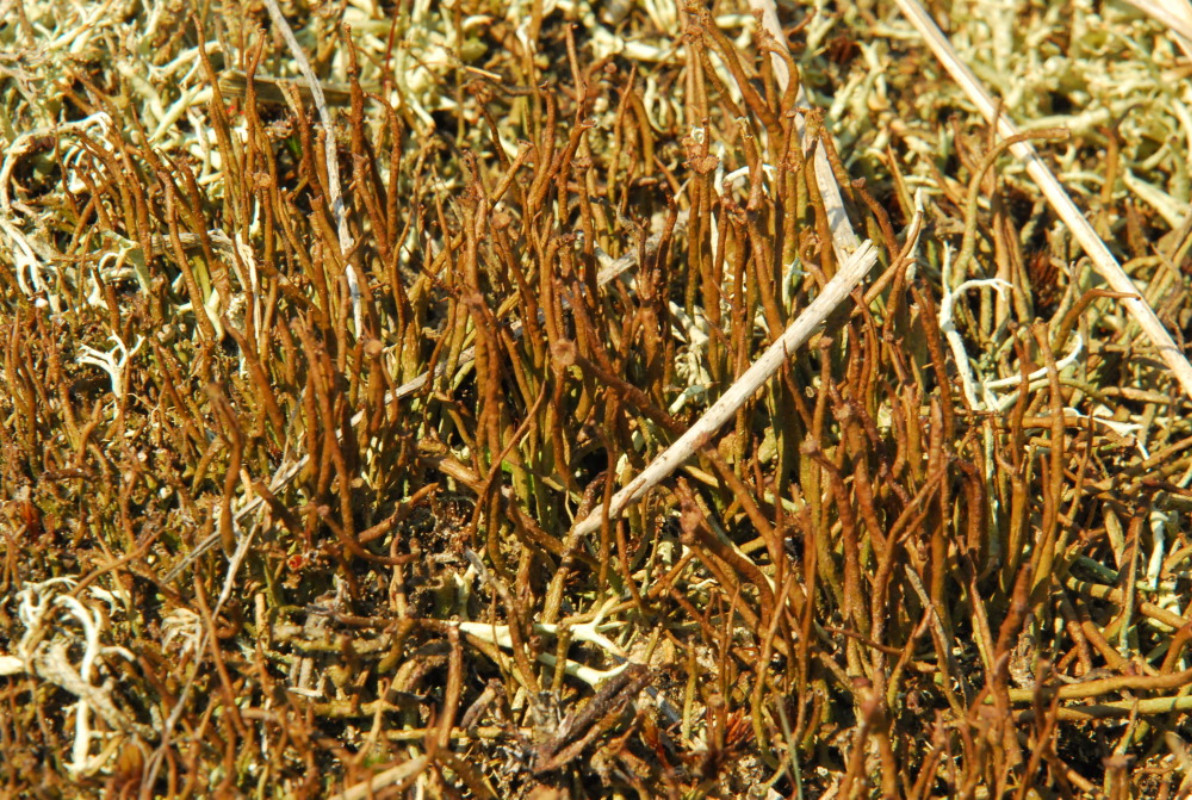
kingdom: Fungi
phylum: Ascomycota
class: Lecanoromycetes
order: Lecanorales
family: Cladoniaceae
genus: Cladonia
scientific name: Cladonia gracilis
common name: slank bægerlav
